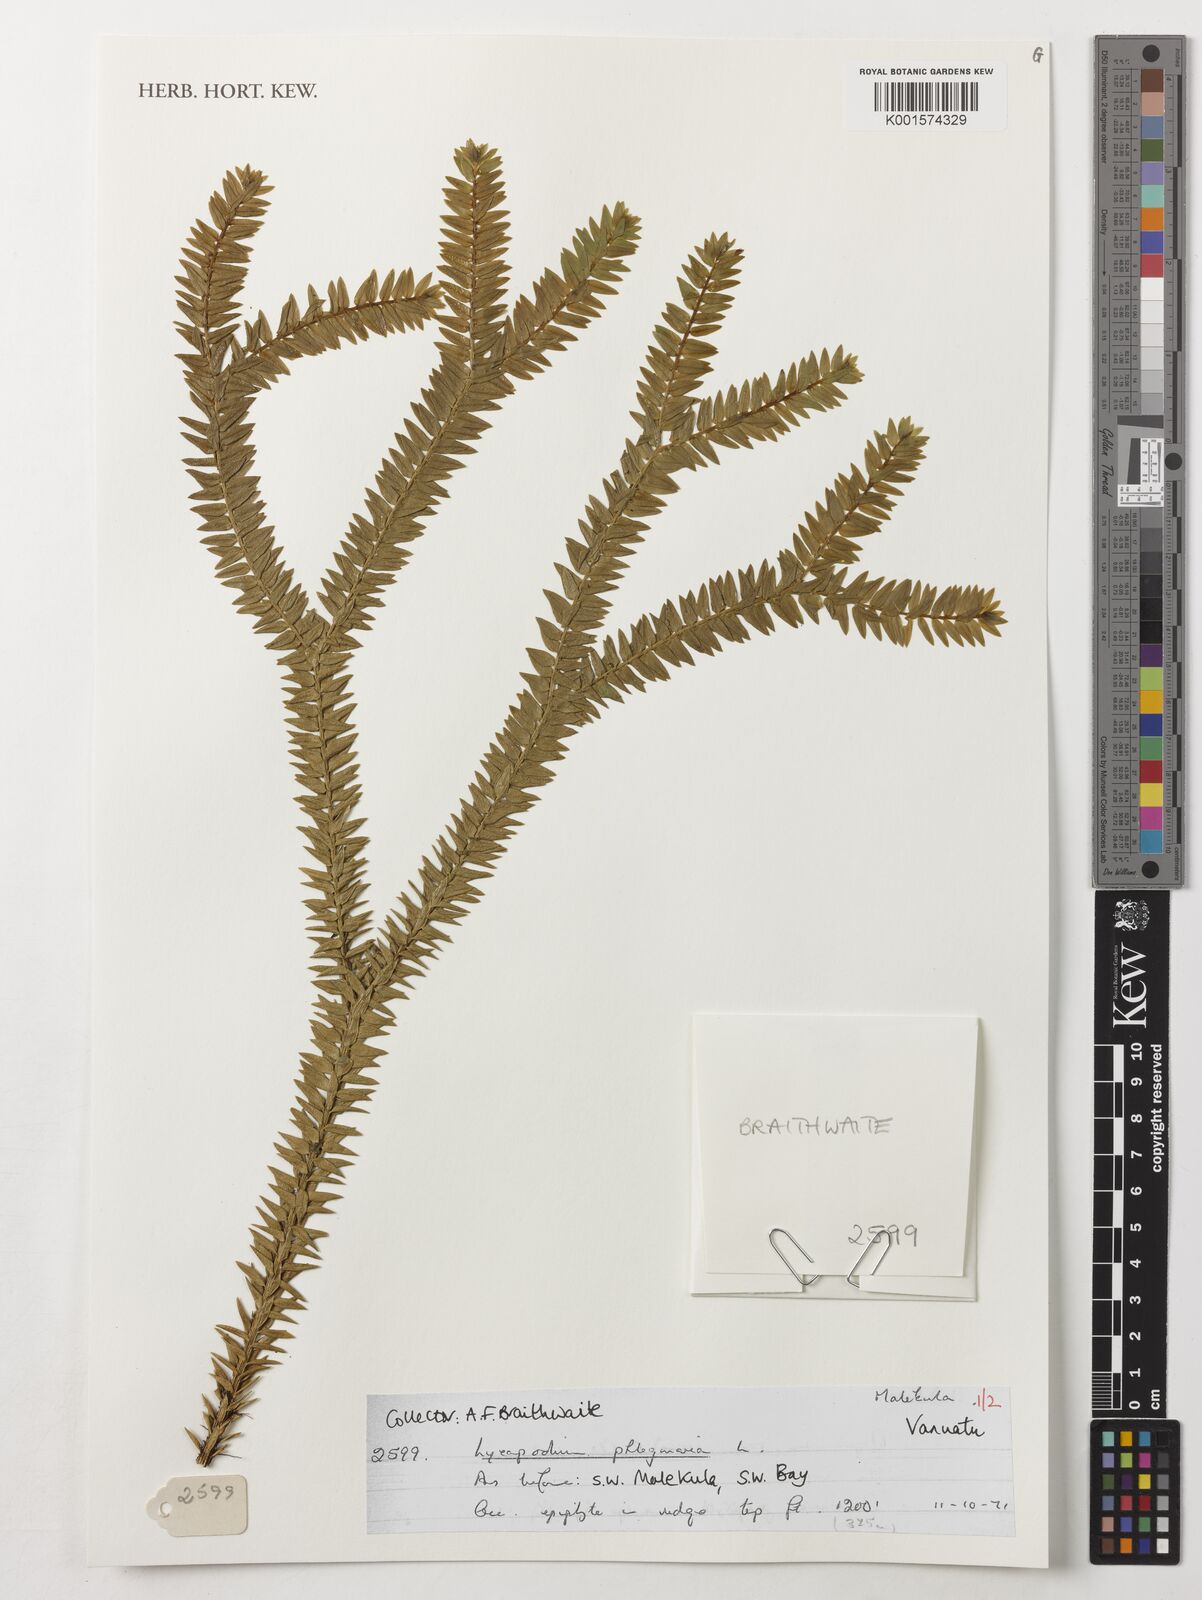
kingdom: Plantae
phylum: Tracheophyta
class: Lycopodiopsida
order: Lycopodiales
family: Lycopodiaceae
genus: Phlegmariurus
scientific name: Phlegmariurus phlegmaria
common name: Coarse tassel-fern
